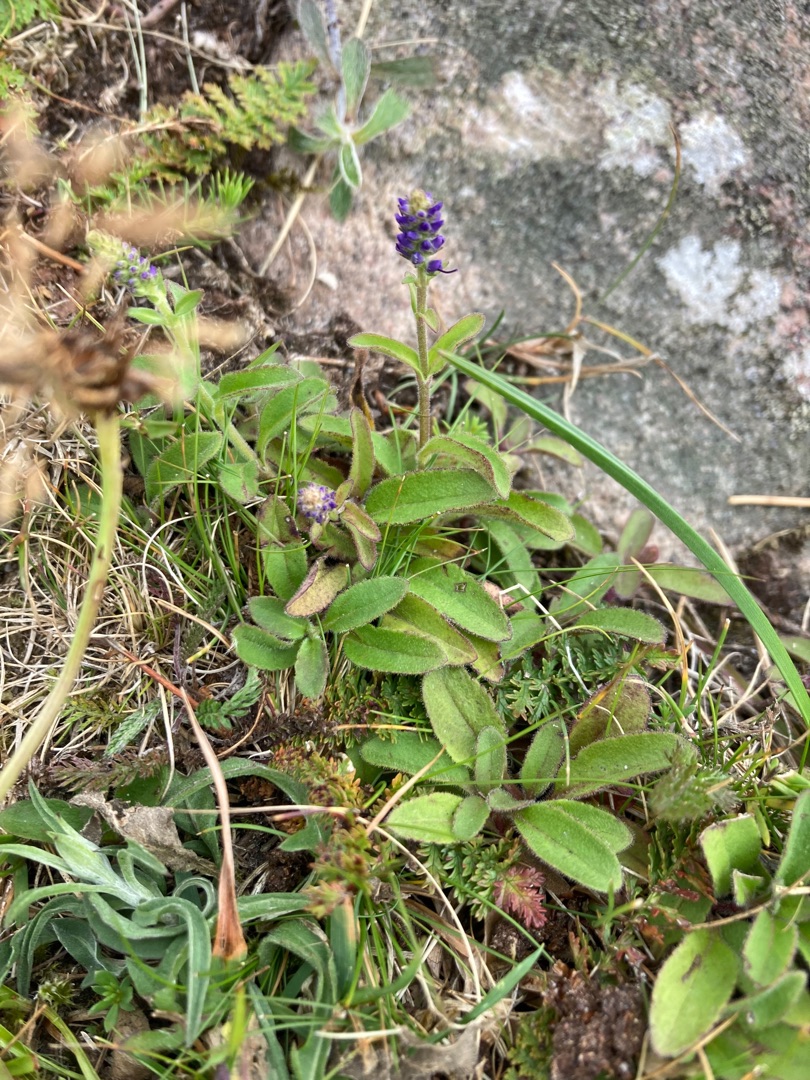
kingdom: Plantae
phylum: Tracheophyta
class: Magnoliopsida
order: Lamiales
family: Plantaginaceae
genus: Veronica
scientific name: Veronica spicata
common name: Aks-ærenpris
